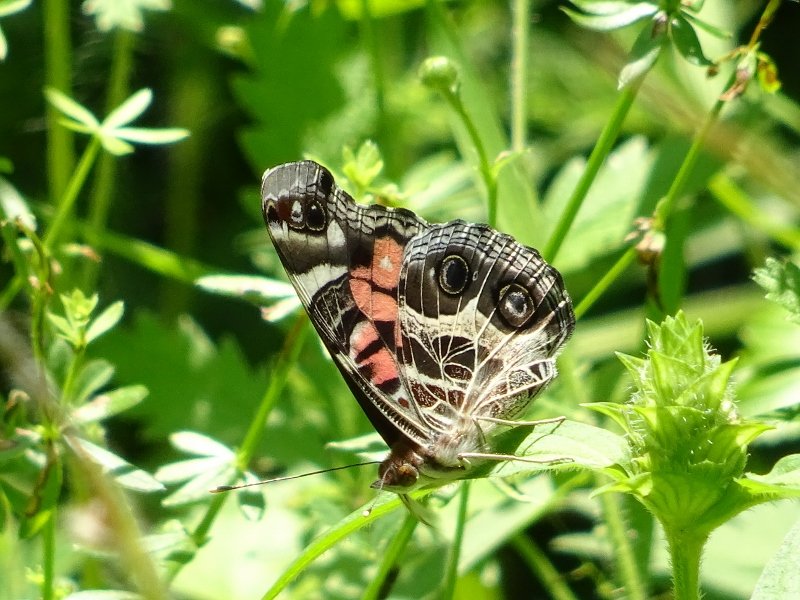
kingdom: Animalia
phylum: Arthropoda
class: Insecta
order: Lepidoptera
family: Nymphalidae
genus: Vanessa
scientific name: Vanessa virginiensis
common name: American Lady
